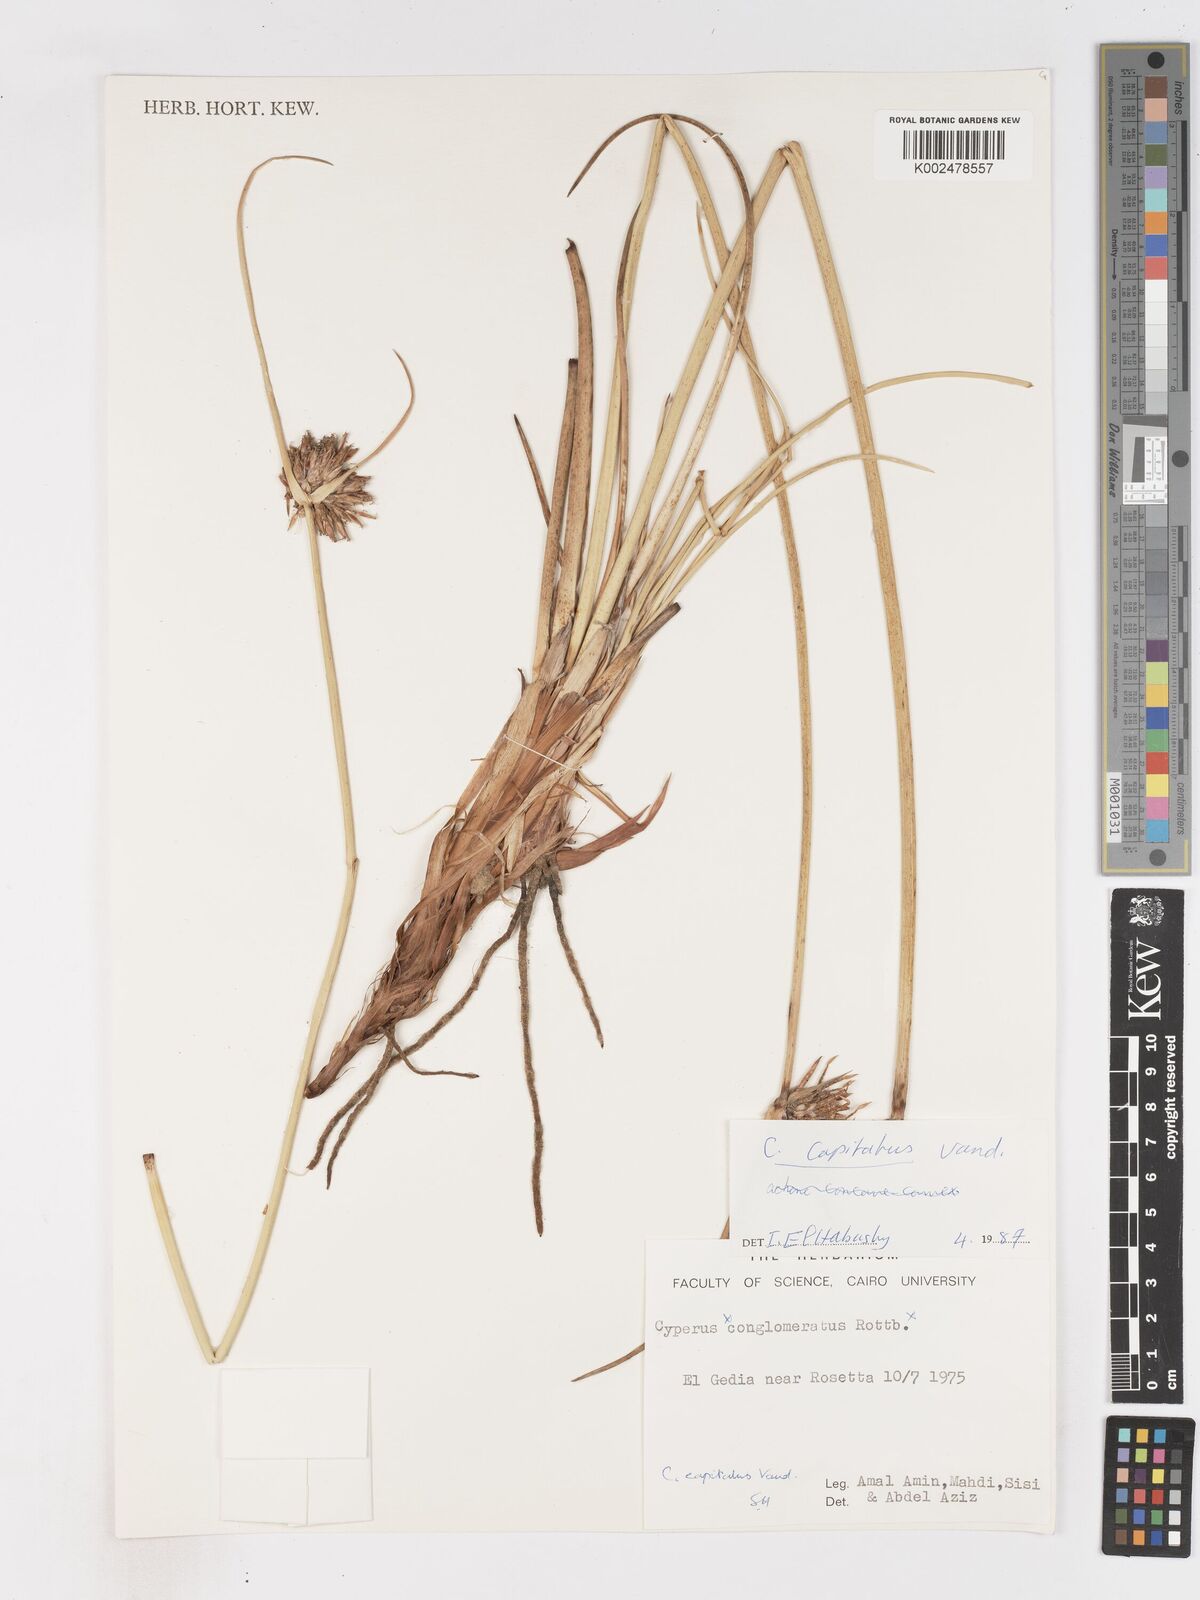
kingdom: Plantae
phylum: Tracheophyta
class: Liliopsida
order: Poales
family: Cyperaceae
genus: Cyperus
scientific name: Cyperus capitatus
